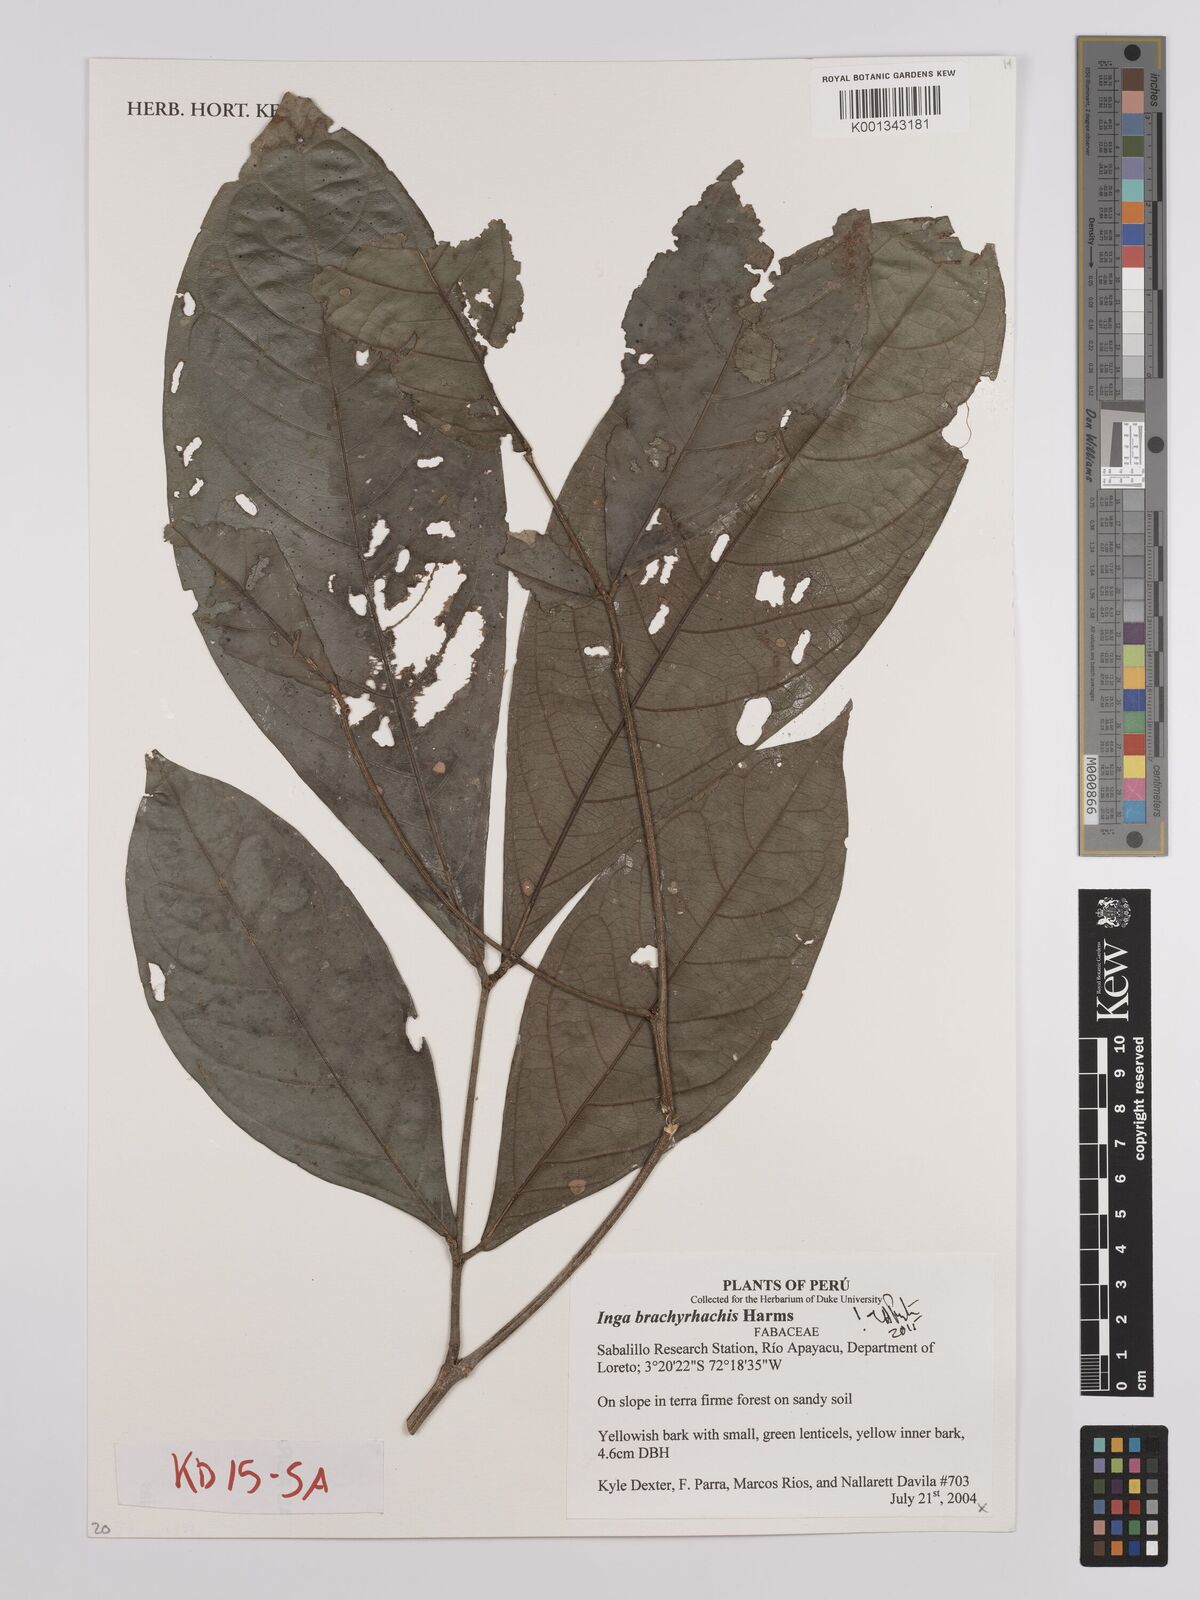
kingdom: Plantae
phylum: Tracheophyta
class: Magnoliopsida
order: Fabales
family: Fabaceae
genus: Inga
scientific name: Inga brachyrhachis
